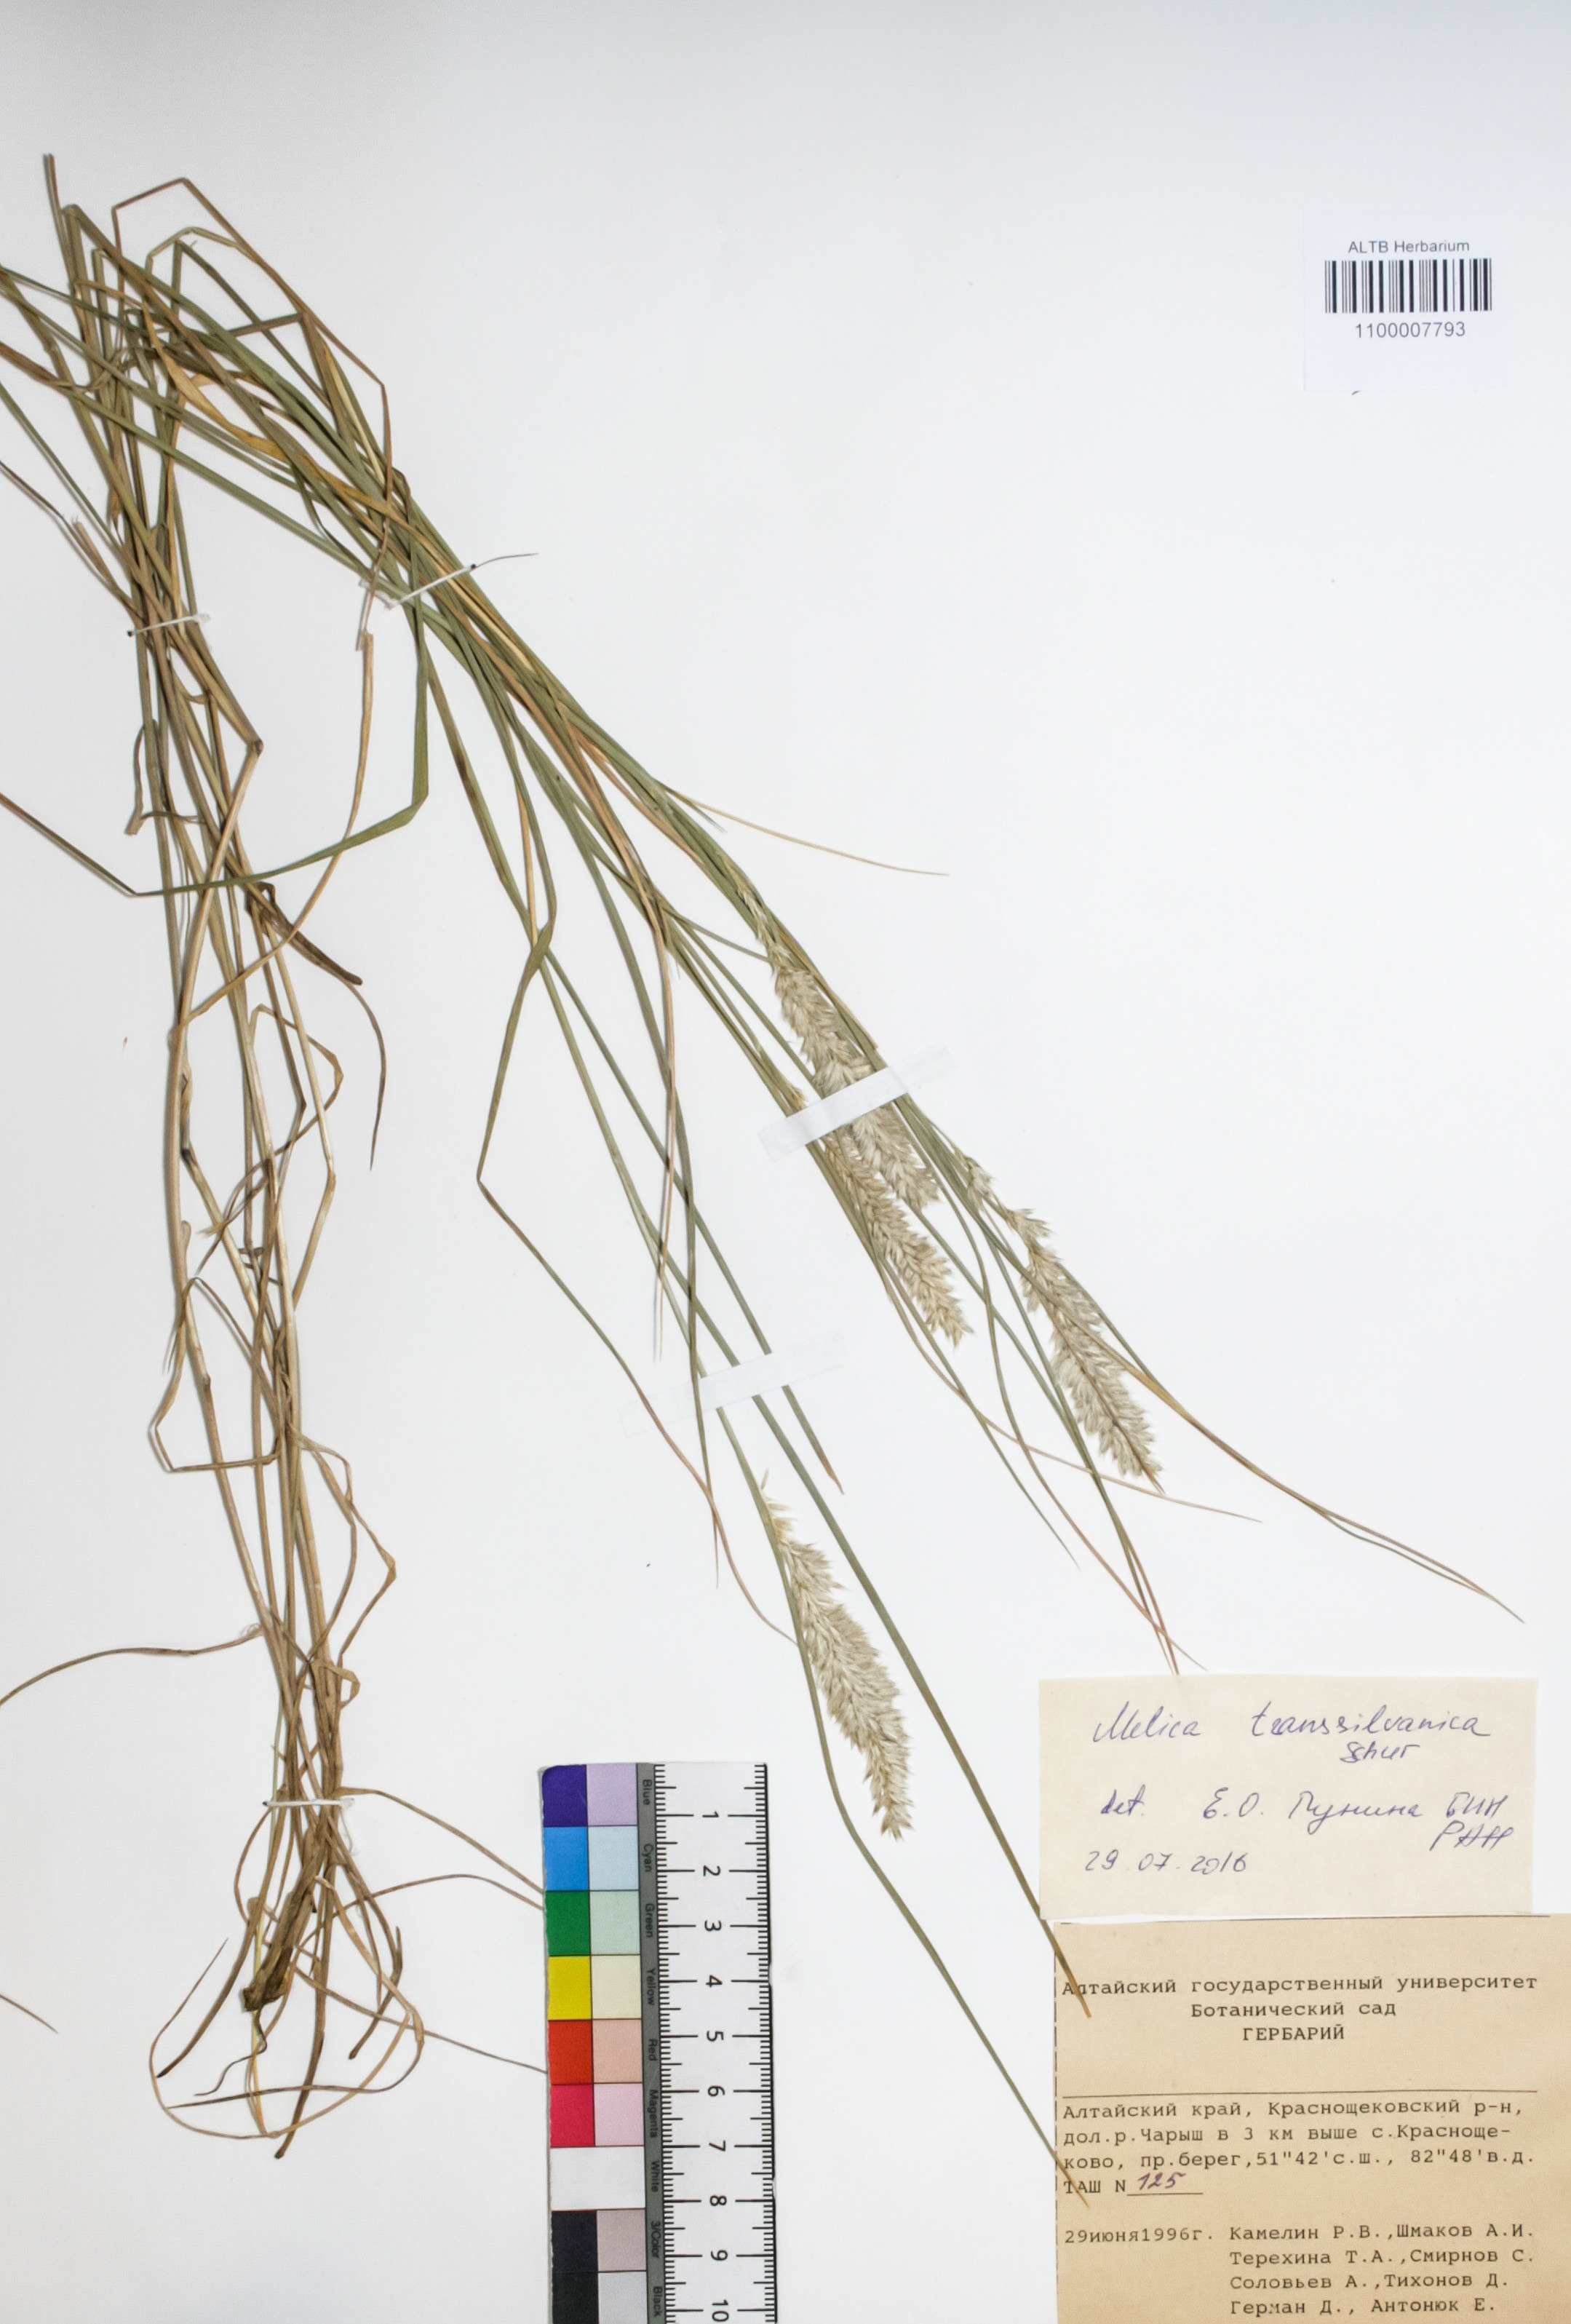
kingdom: Plantae
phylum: Tracheophyta
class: Liliopsida
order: Poales
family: Poaceae
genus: Melica
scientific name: Melica transsilvanica
